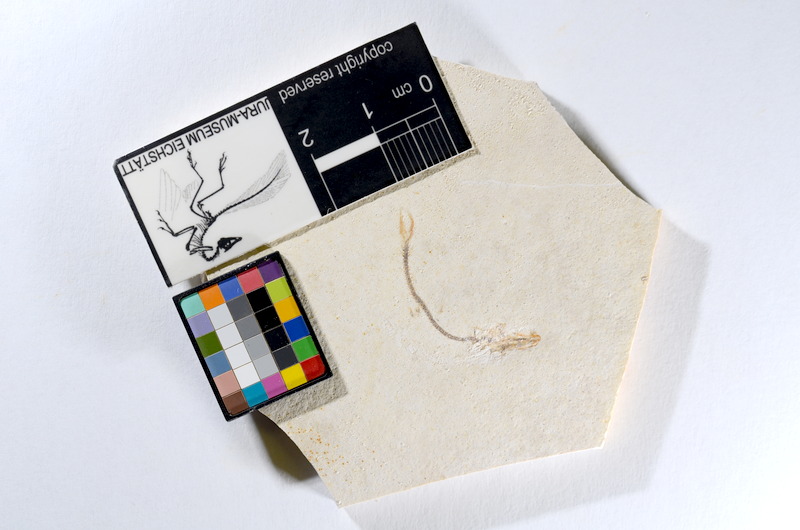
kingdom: Animalia
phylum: Chordata
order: Salmoniformes
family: Orthogonikleithridae
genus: Orthogonikleithrus
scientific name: Orthogonikleithrus hoelli
